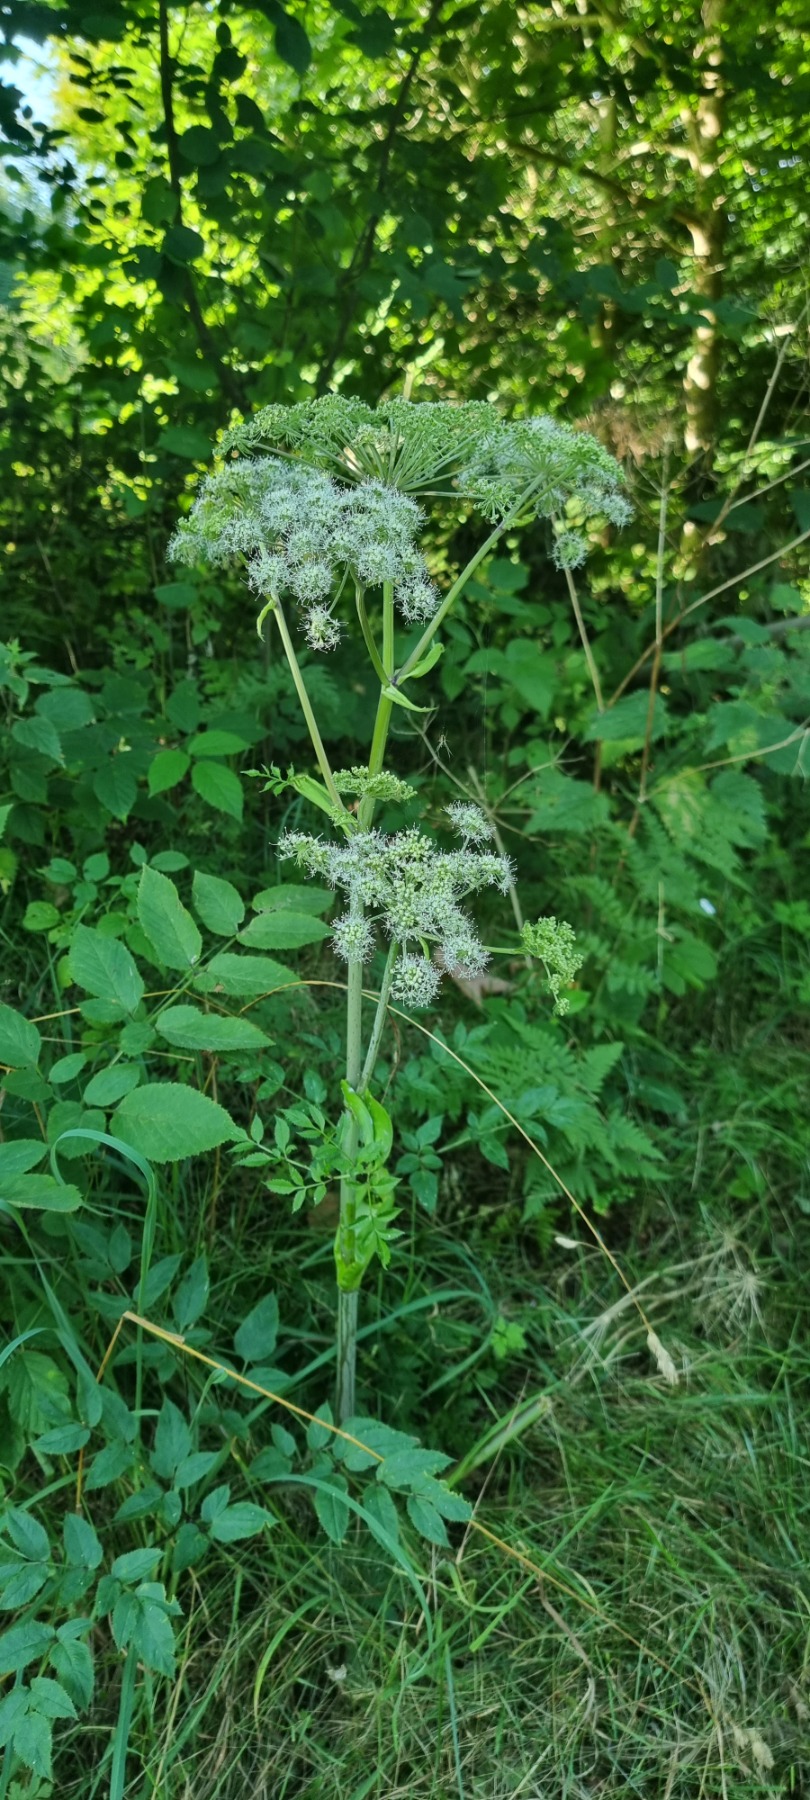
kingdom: Plantae
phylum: Tracheophyta
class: Magnoliopsida
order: Apiales
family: Apiaceae
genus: Angelica
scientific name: Angelica sylvestris
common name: Angelik
